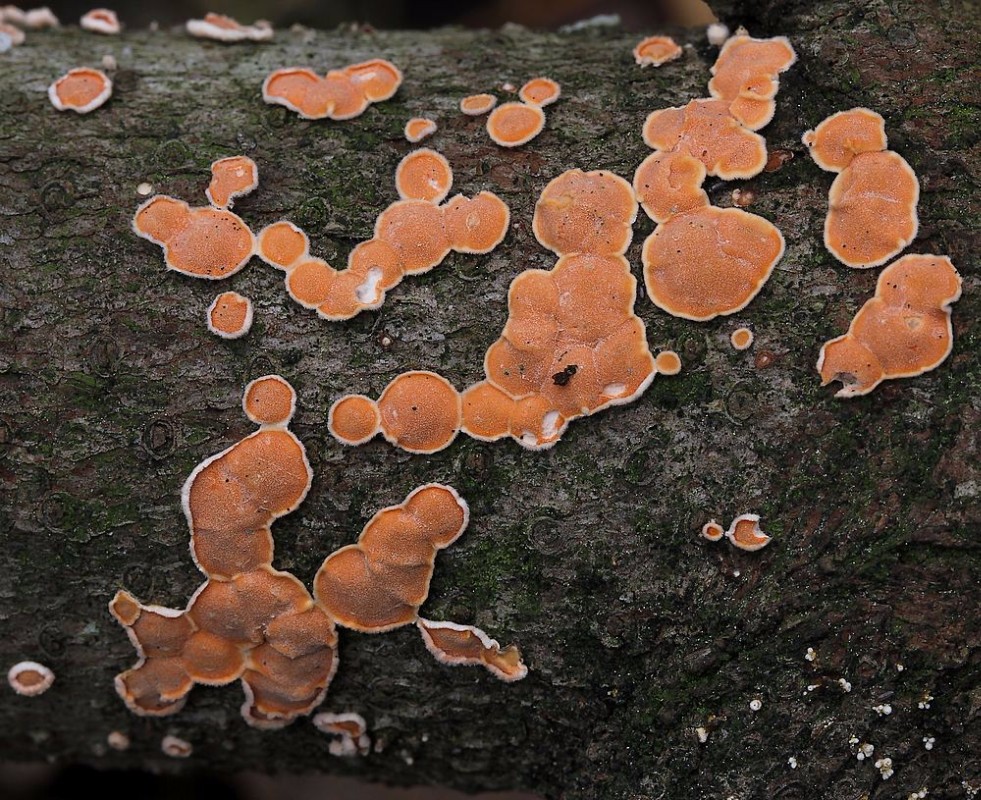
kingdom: Fungi
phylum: Basidiomycota
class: Agaricomycetes
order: Russulales
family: Stereaceae
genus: Aleurodiscus
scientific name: Aleurodiscus amorphus
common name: orange skiveskorpe
